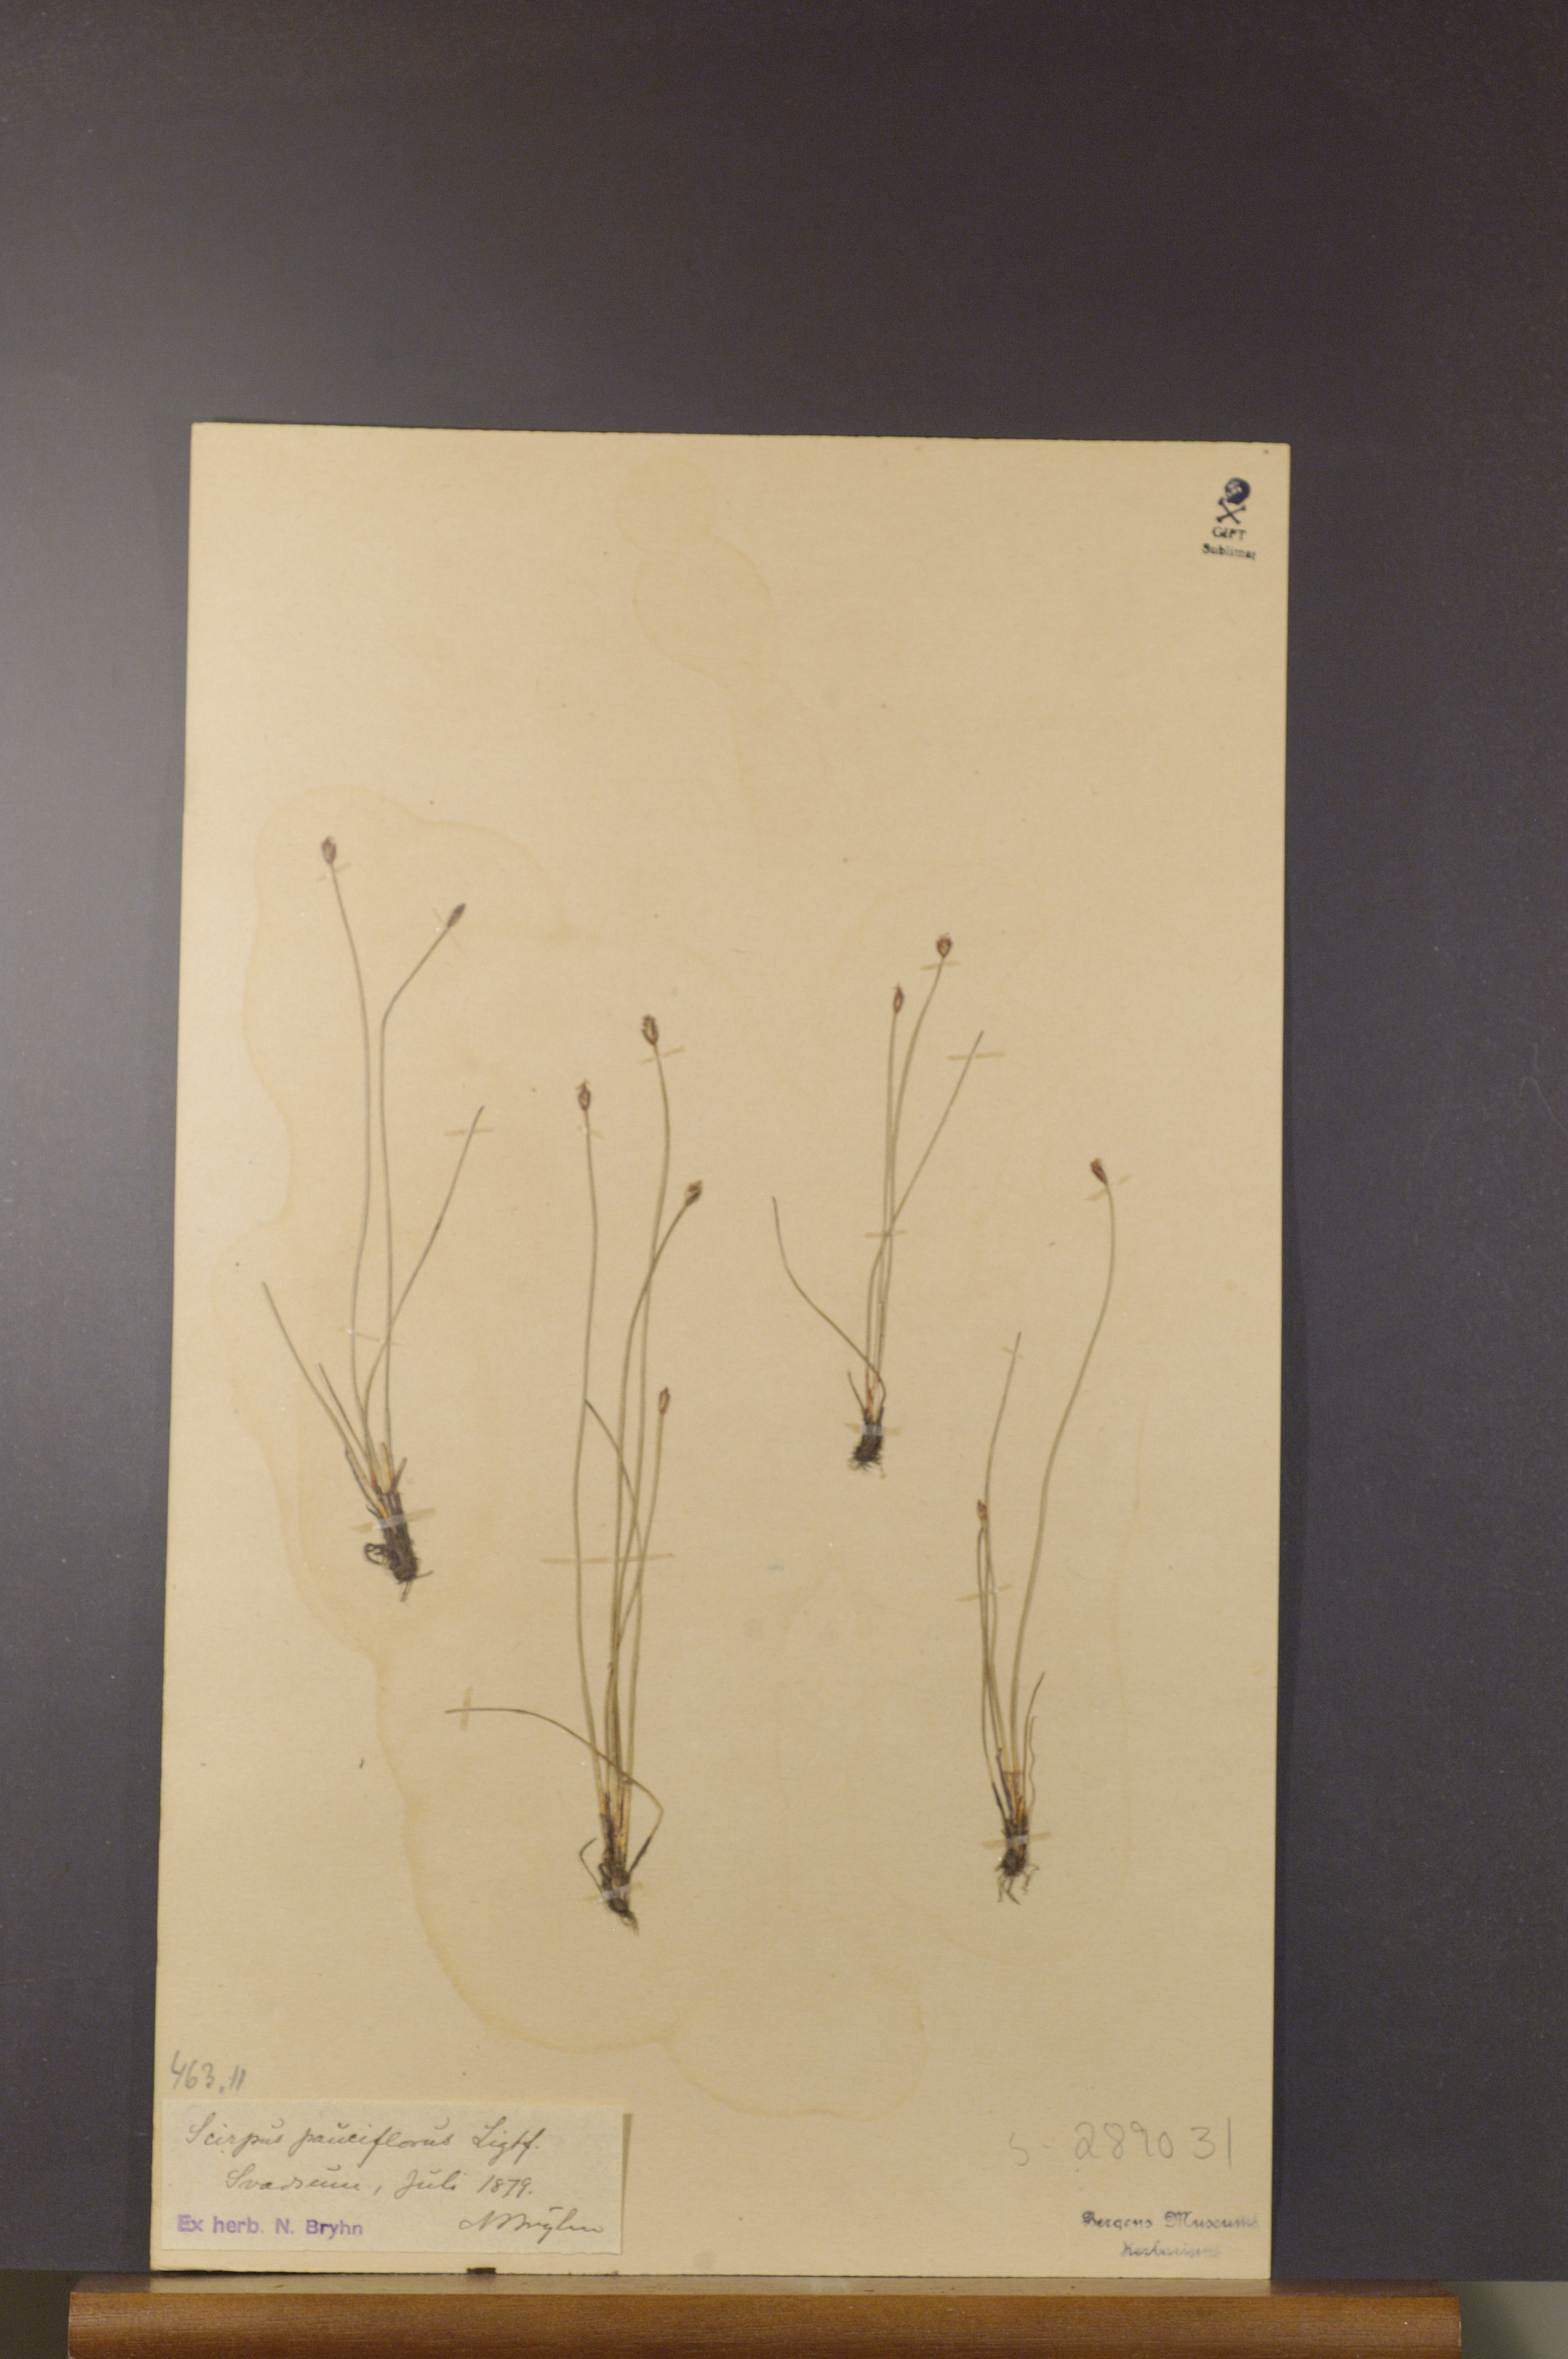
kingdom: Plantae
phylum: Tracheophyta
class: Liliopsida
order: Poales
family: Cyperaceae
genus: Eleocharis
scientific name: Eleocharis quinqueflora
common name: Few-flowered spike-rush
